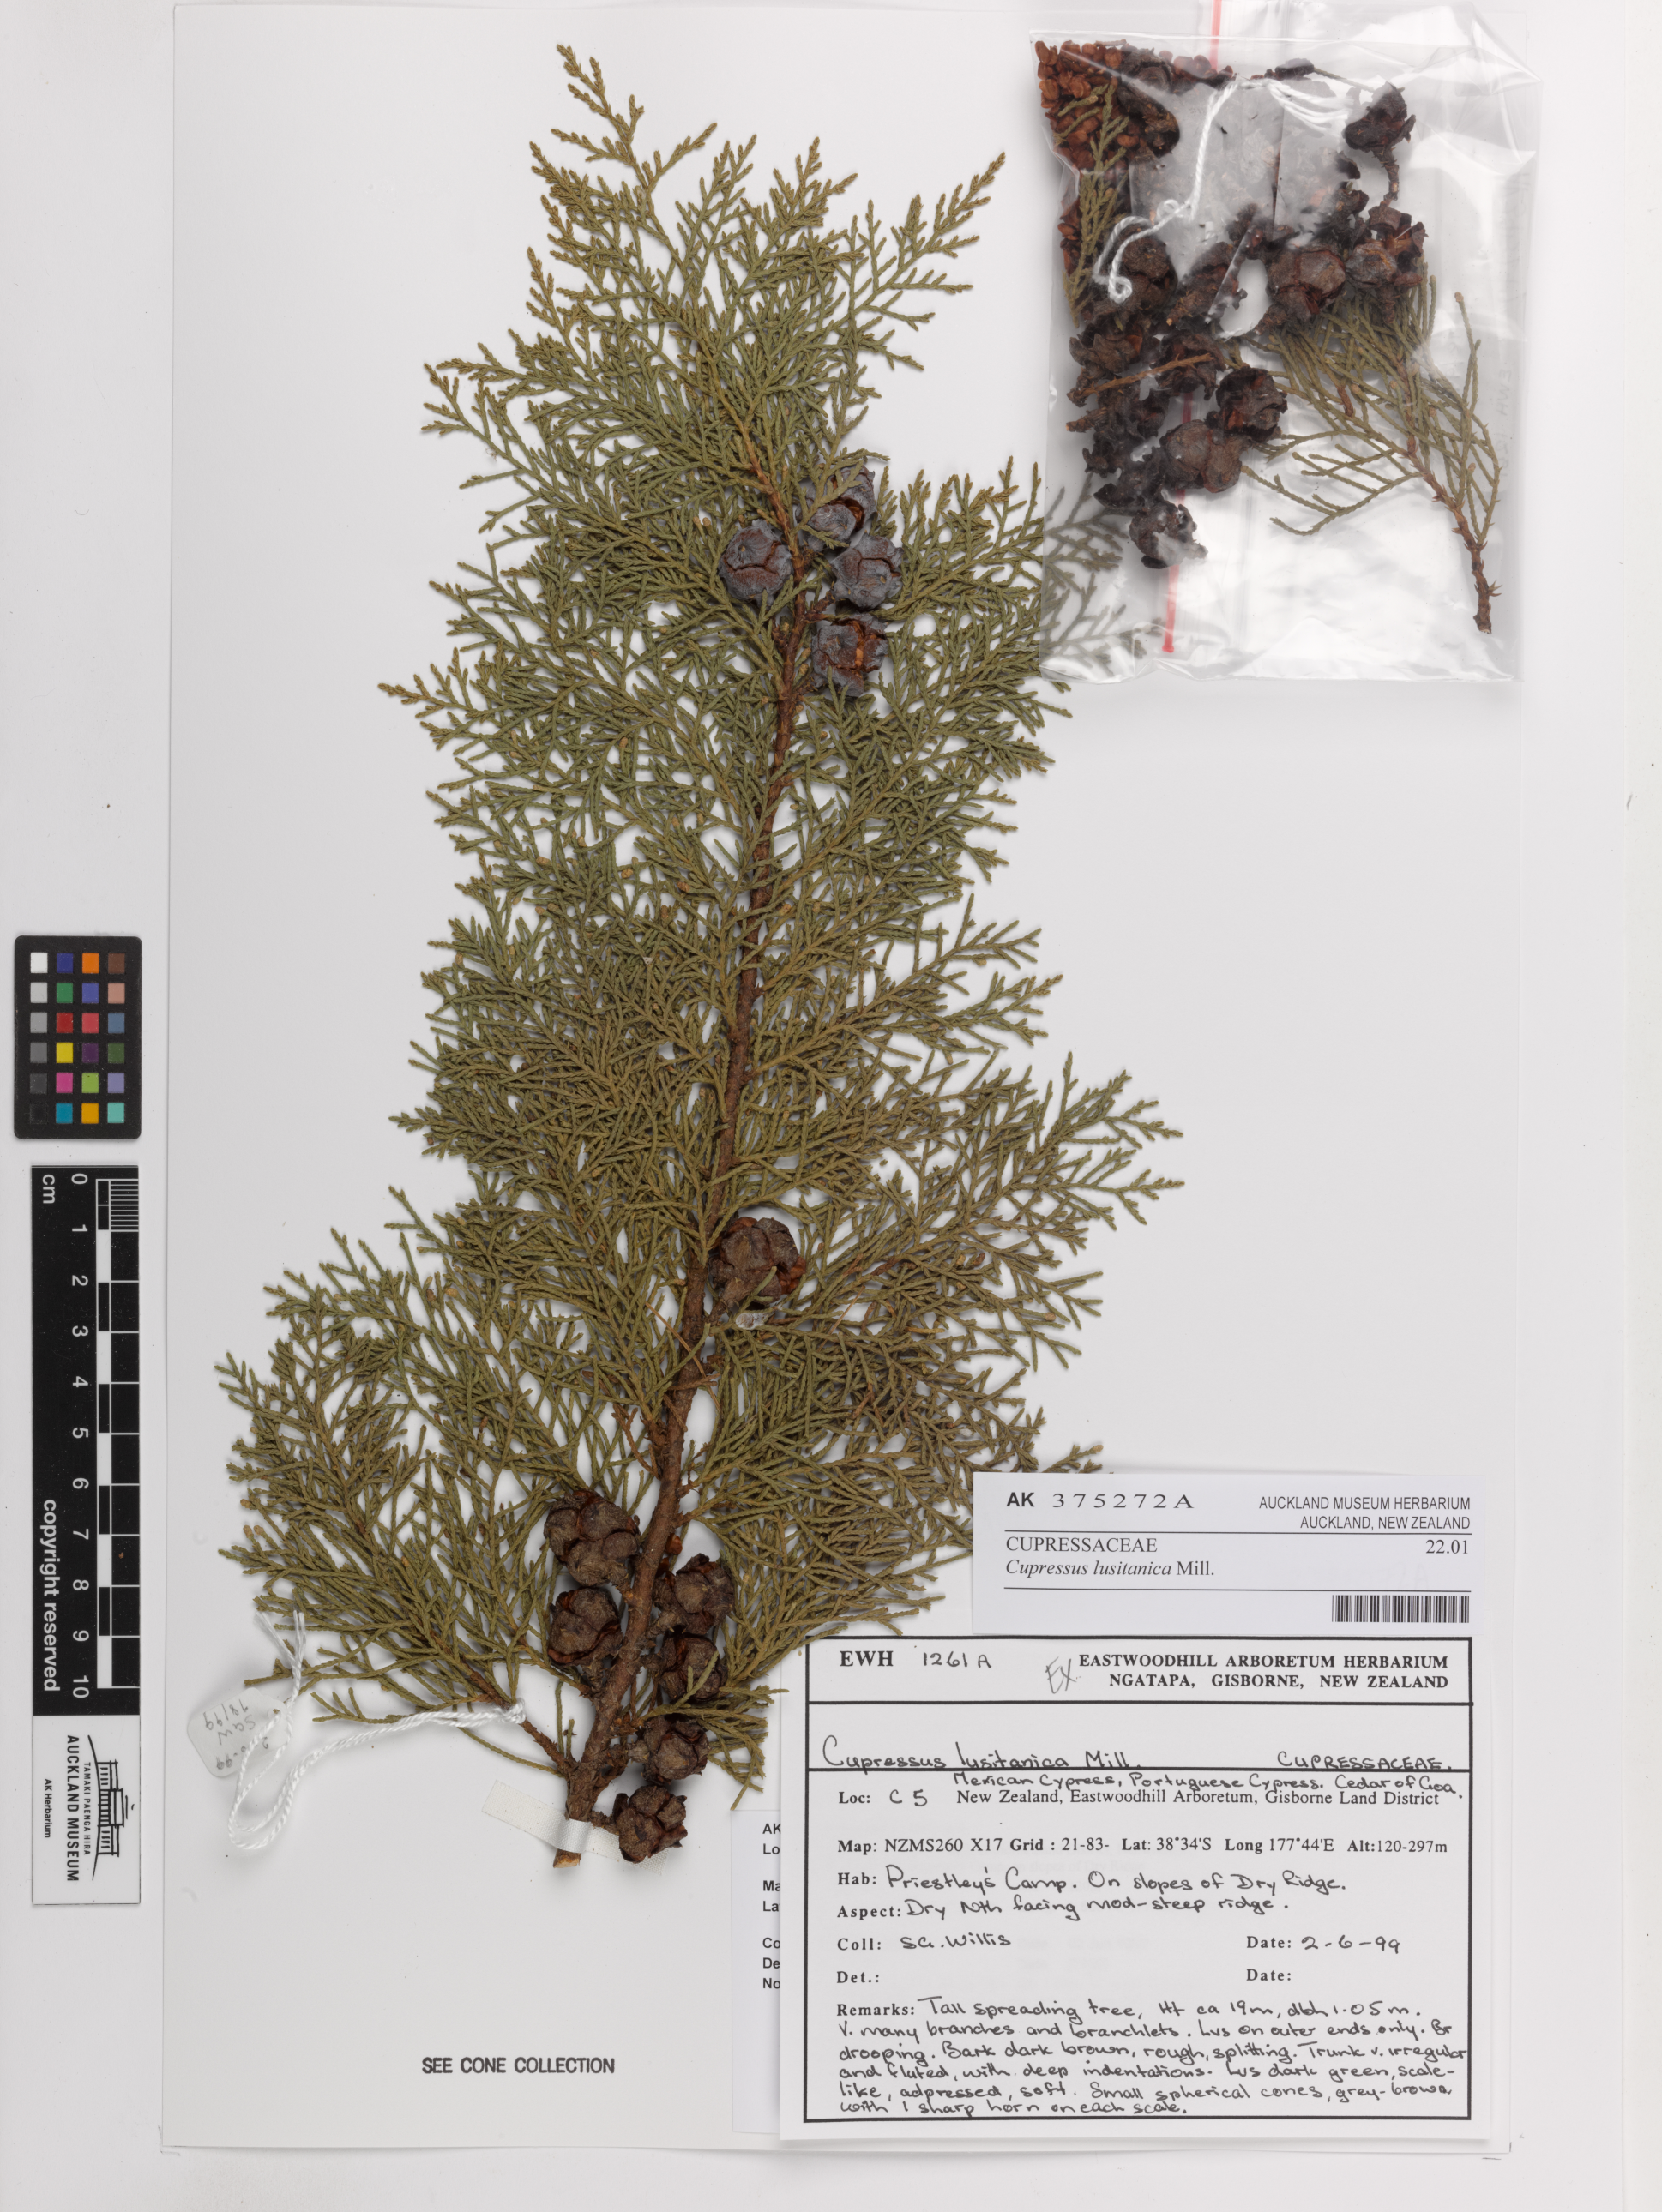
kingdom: Plantae
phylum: Tracheophyta
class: Pinopsida
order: Pinales
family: Cupressaceae
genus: Cupressus
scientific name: Cupressus lusitanica
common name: Mexican cypress
